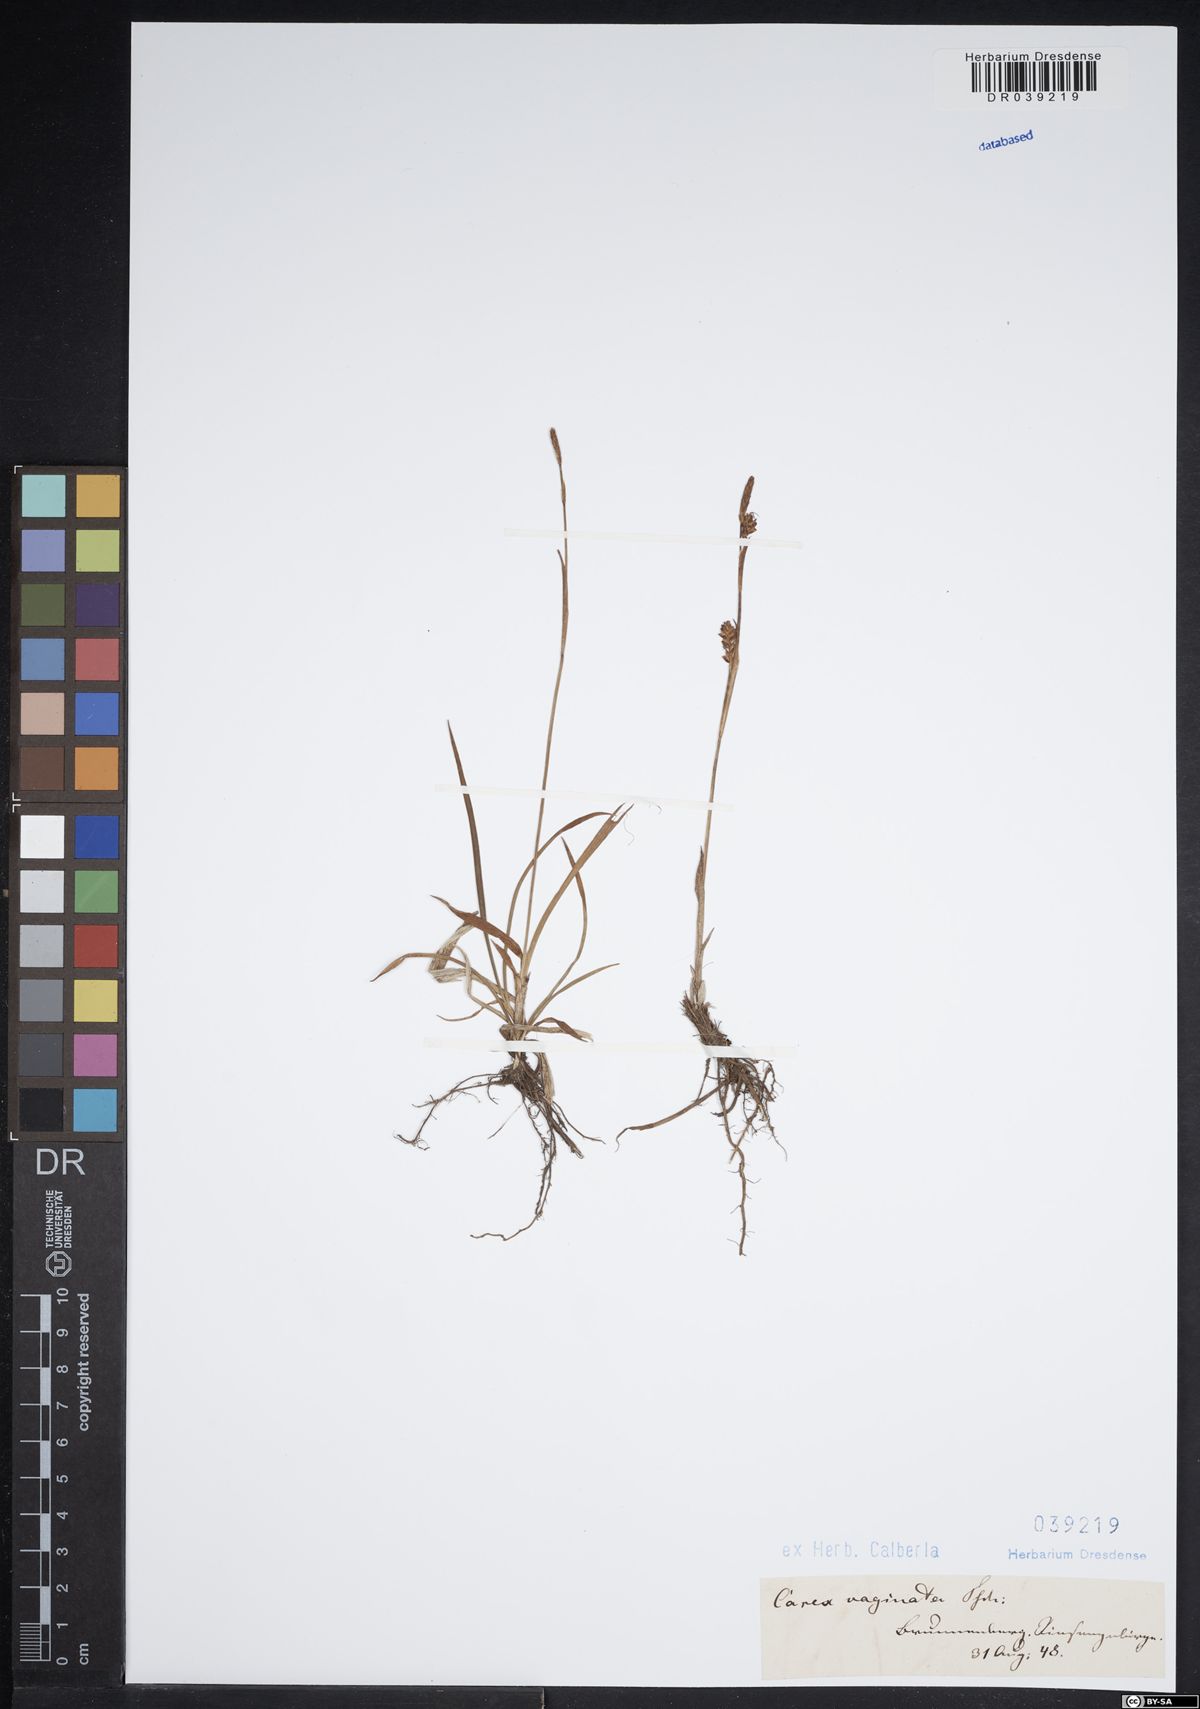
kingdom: Plantae
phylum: Tracheophyta
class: Liliopsida
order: Poales
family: Cyperaceae
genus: Carex
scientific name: Carex vaginata
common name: Sheathed sedge
